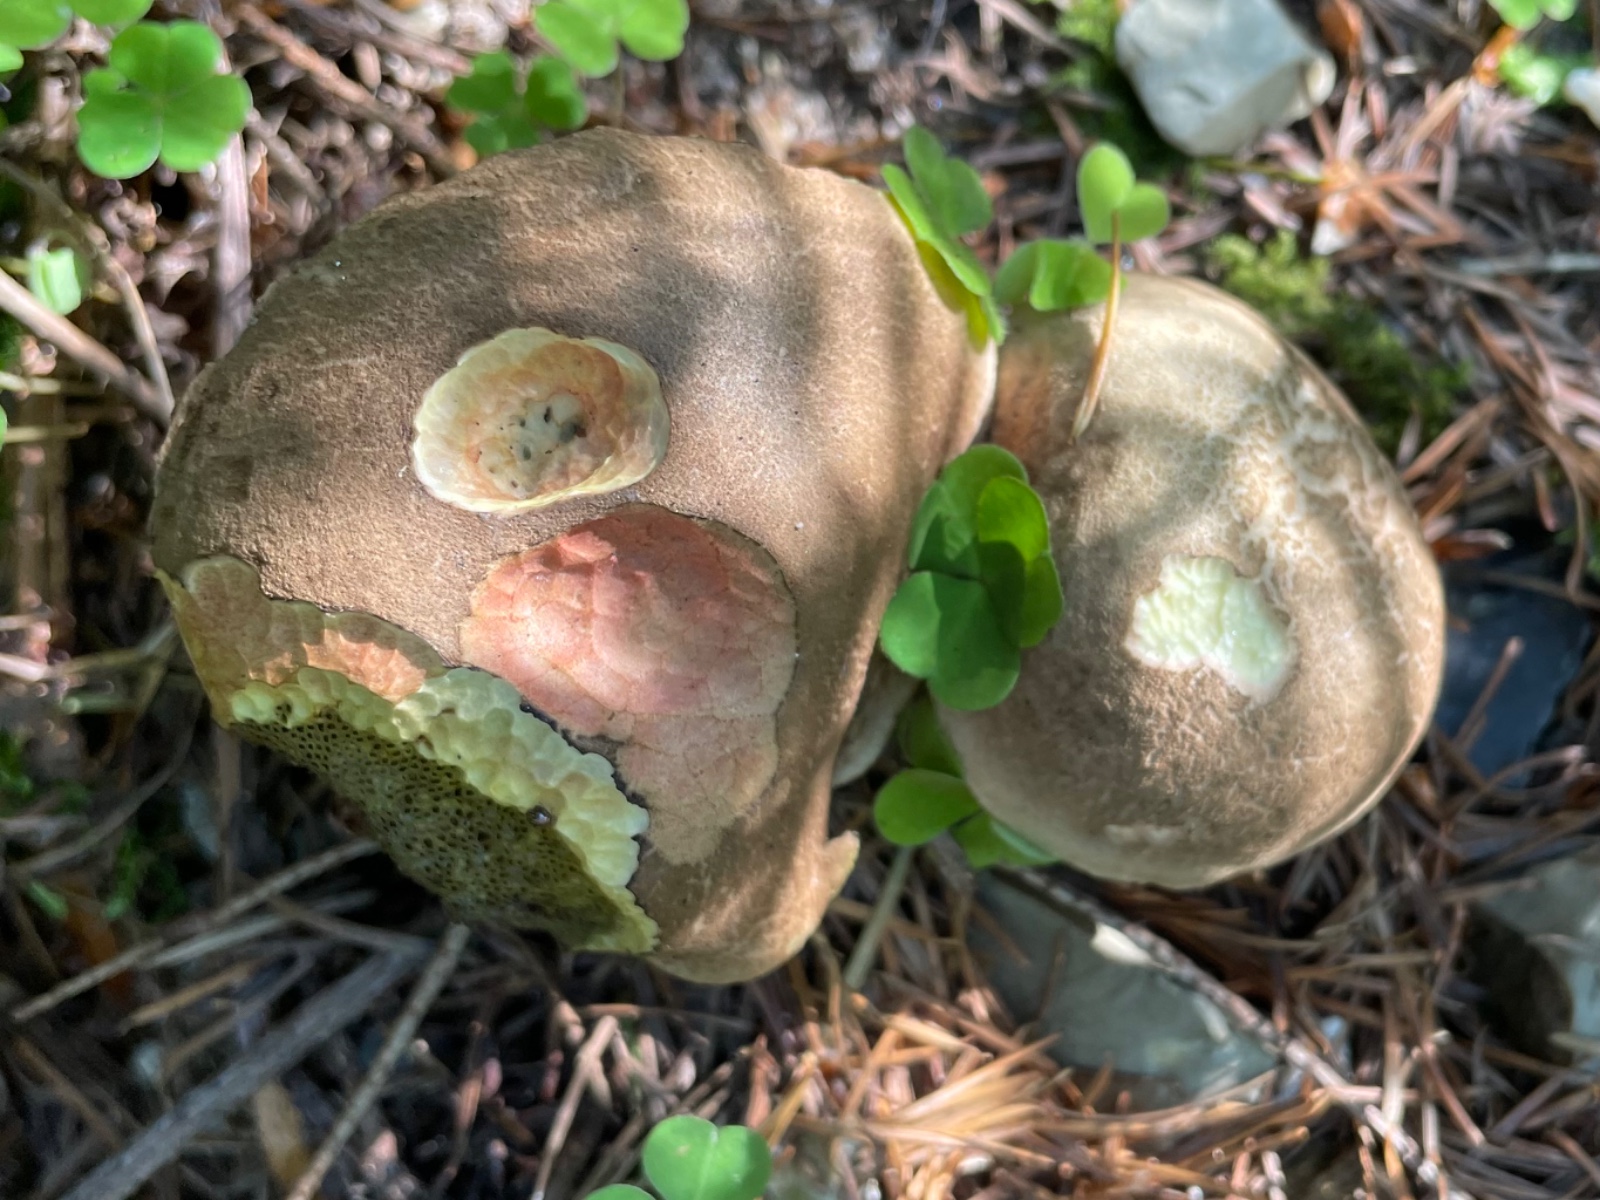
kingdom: Fungi
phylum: Basidiomycota
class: Agaricomycetes
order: Boletales
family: Boletaceae
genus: Xerocomellus
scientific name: Xerocomellus chrysenteron
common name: rødsprukken rørhat
